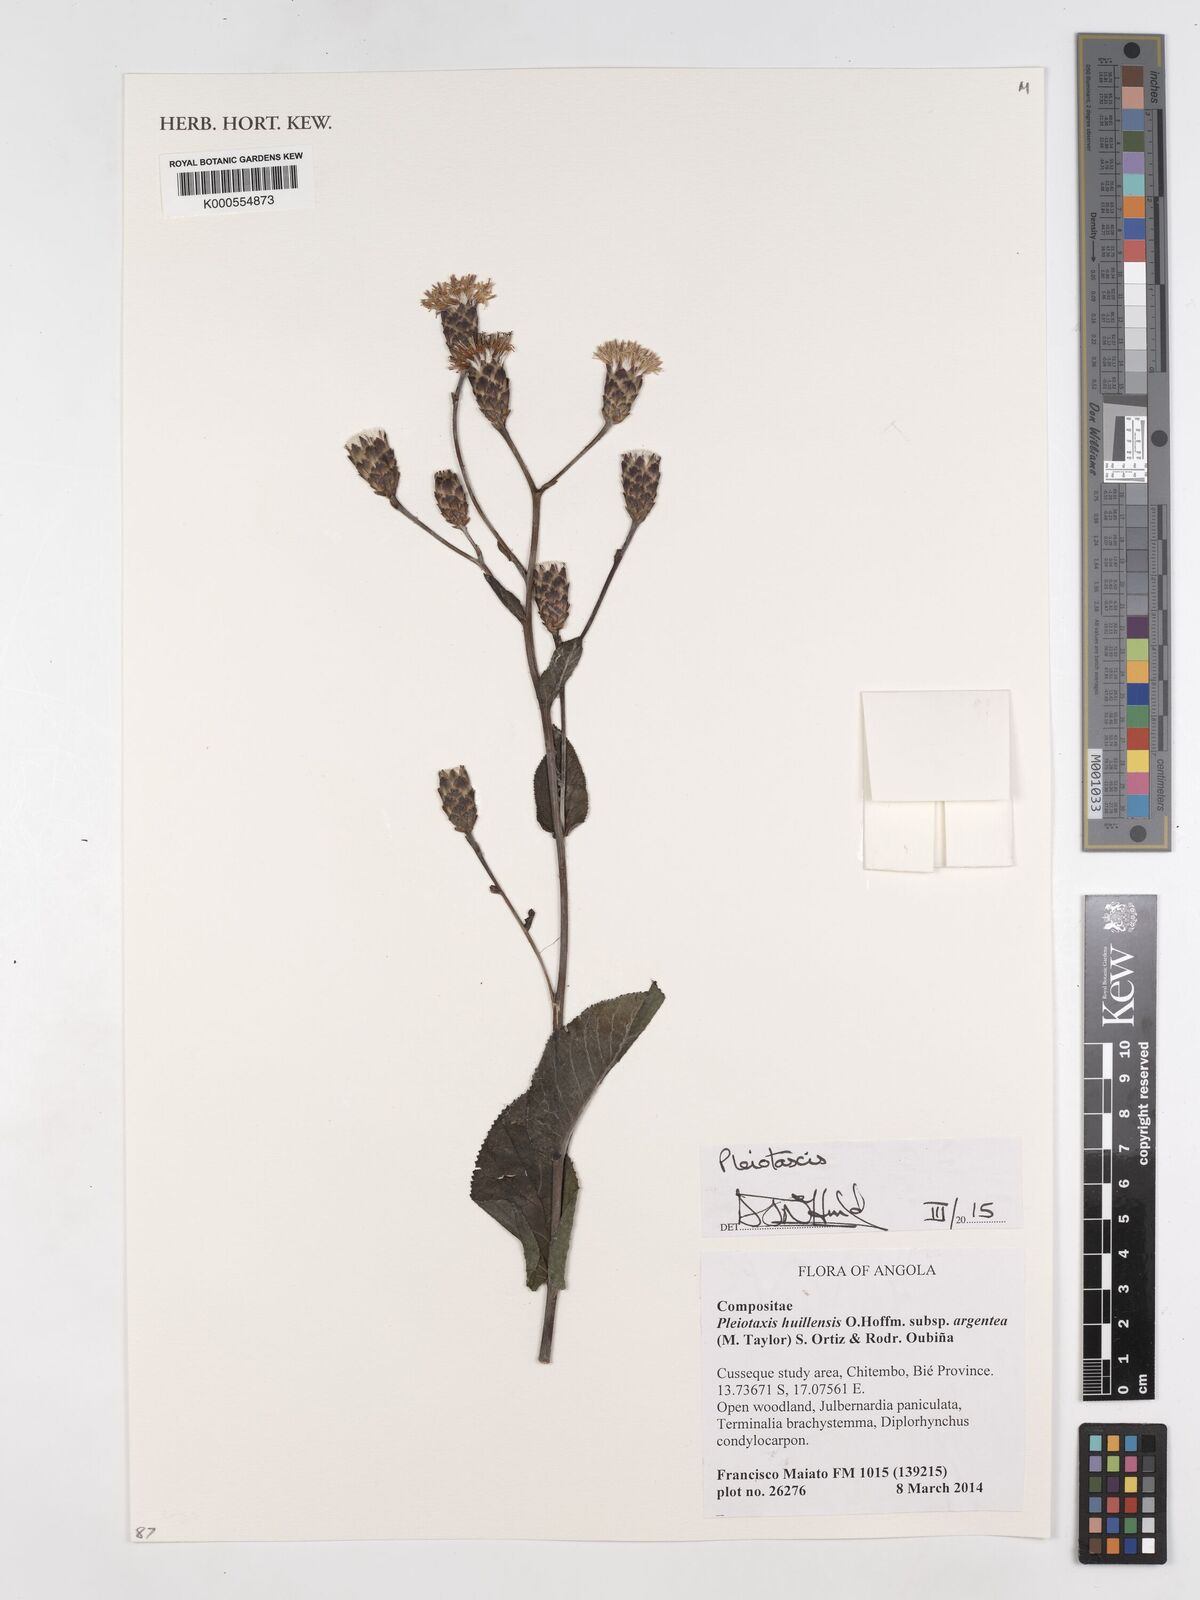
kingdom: Plantae
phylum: Tracheophyta
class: Magnoliopsida
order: Asterales
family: Asteraceae
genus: Pleiotaxis
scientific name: Pleiotaxis huillensis
